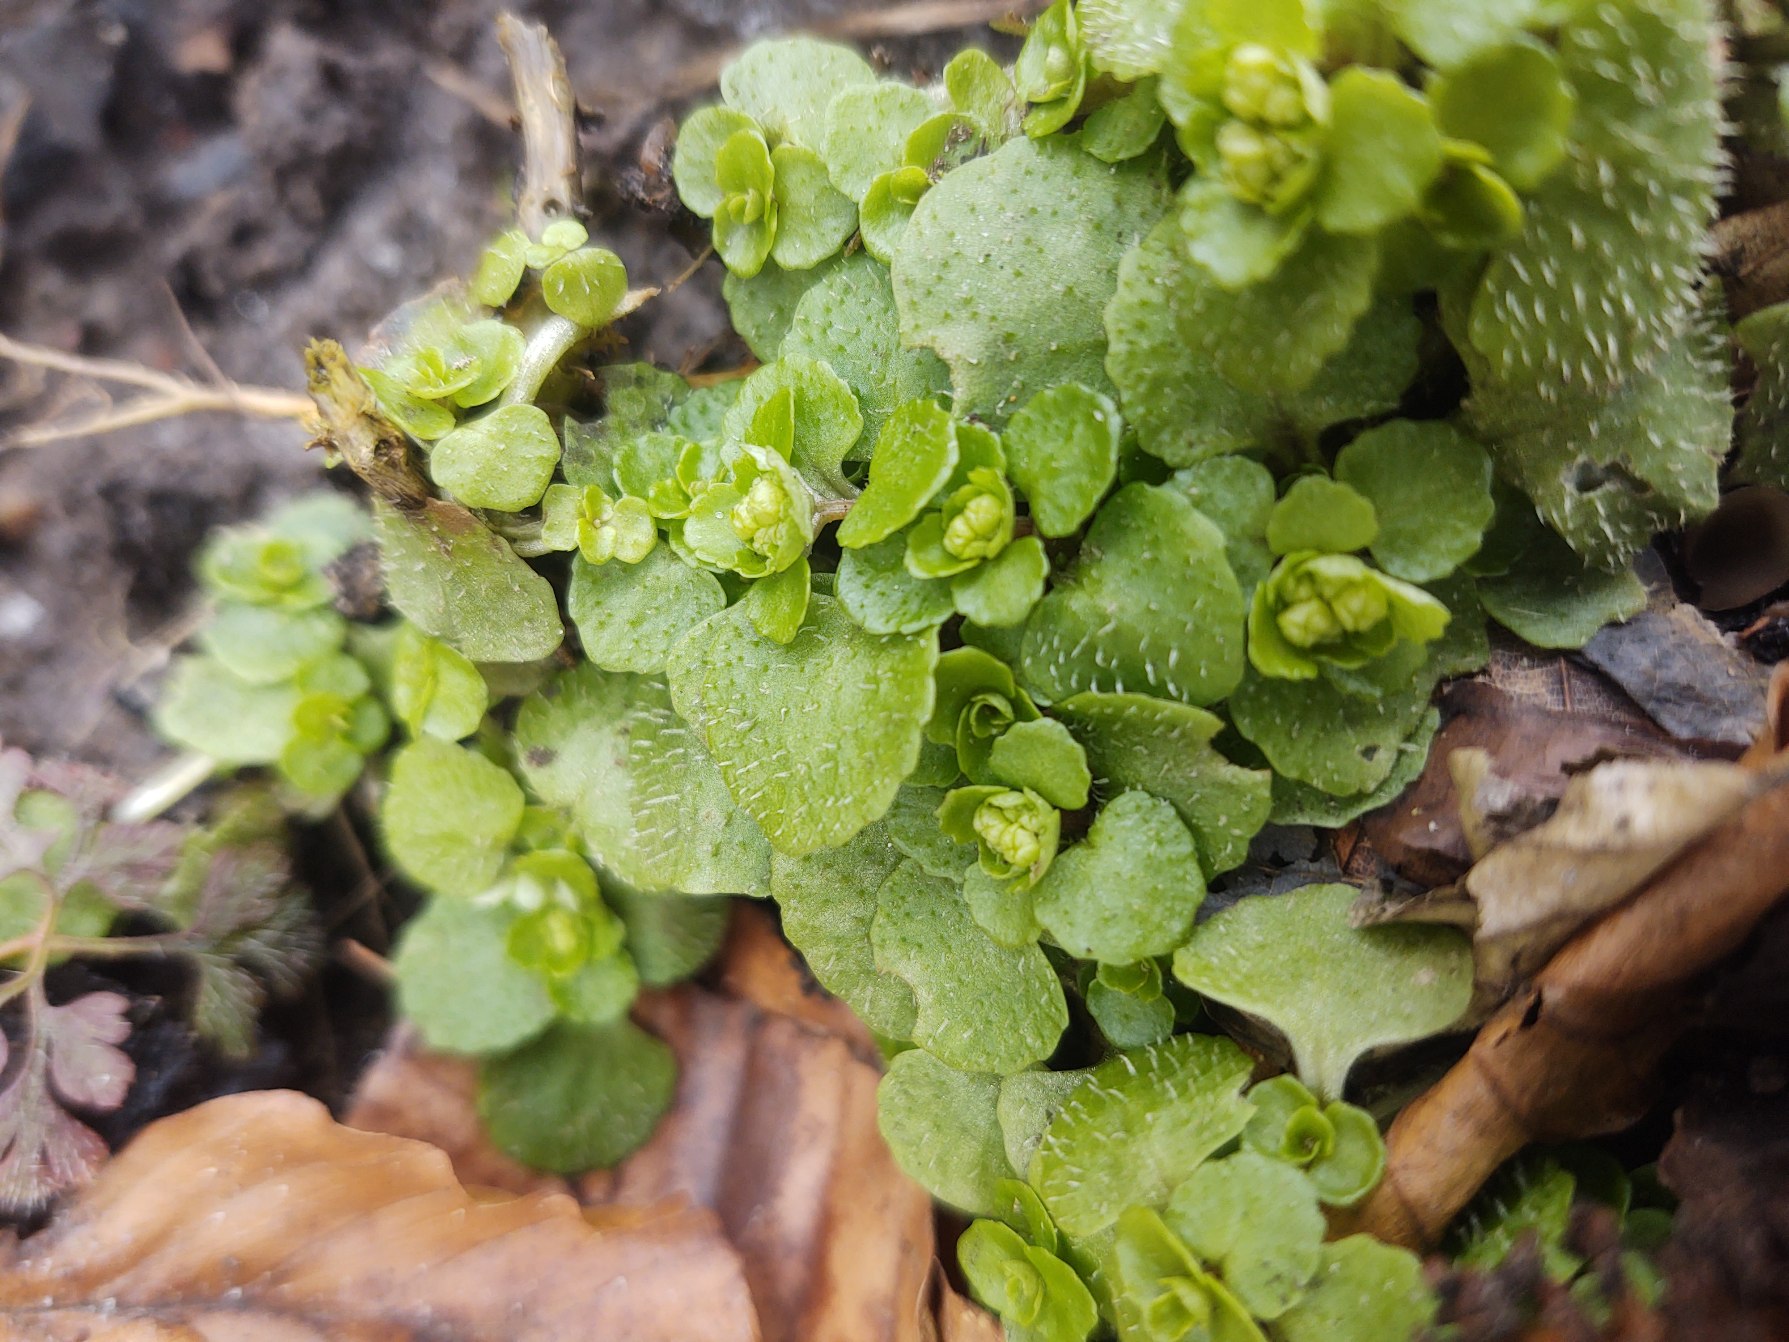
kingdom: Plantae
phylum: Tracheophyta
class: Magnoliopsida
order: Saxifragales
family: Saxifragaceae
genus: Chrysosplenium
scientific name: Chrysosplenium oppositifolium
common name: Småbladet milturt
